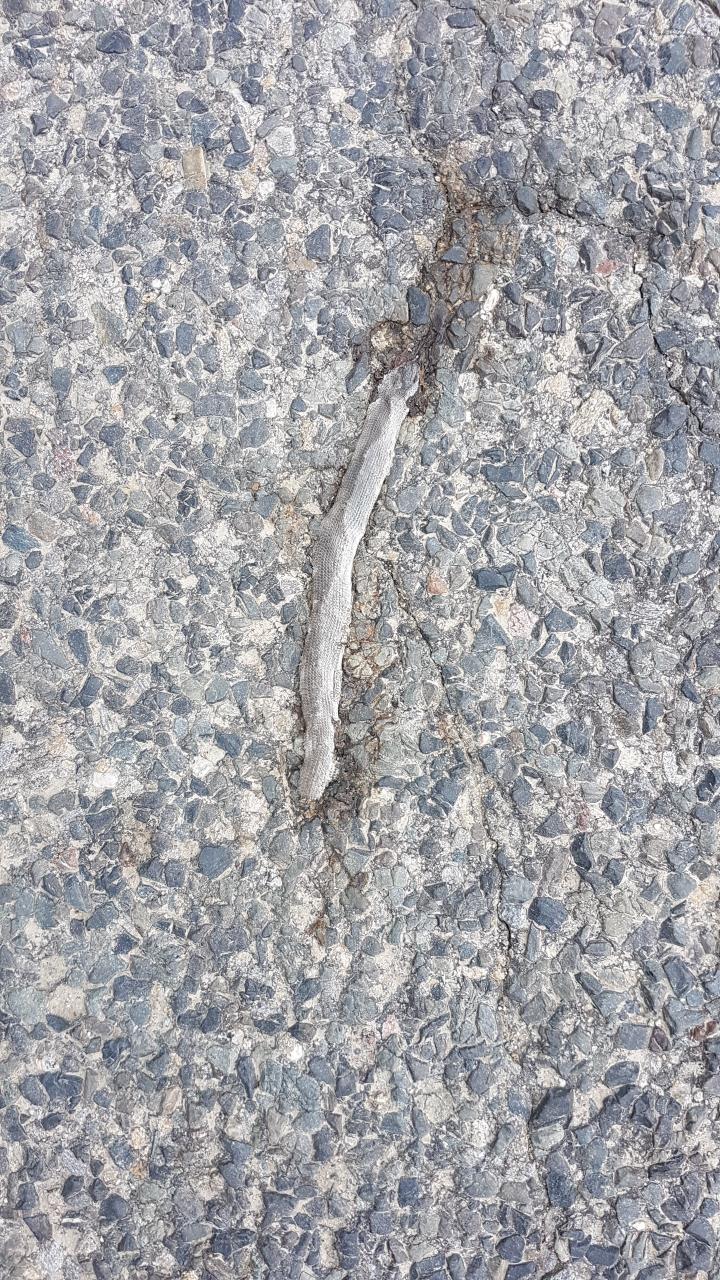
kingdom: Animalia
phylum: Chordata
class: Squamata
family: Anguidae
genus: Anguis
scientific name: Anguis fragilis
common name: Slow worm
